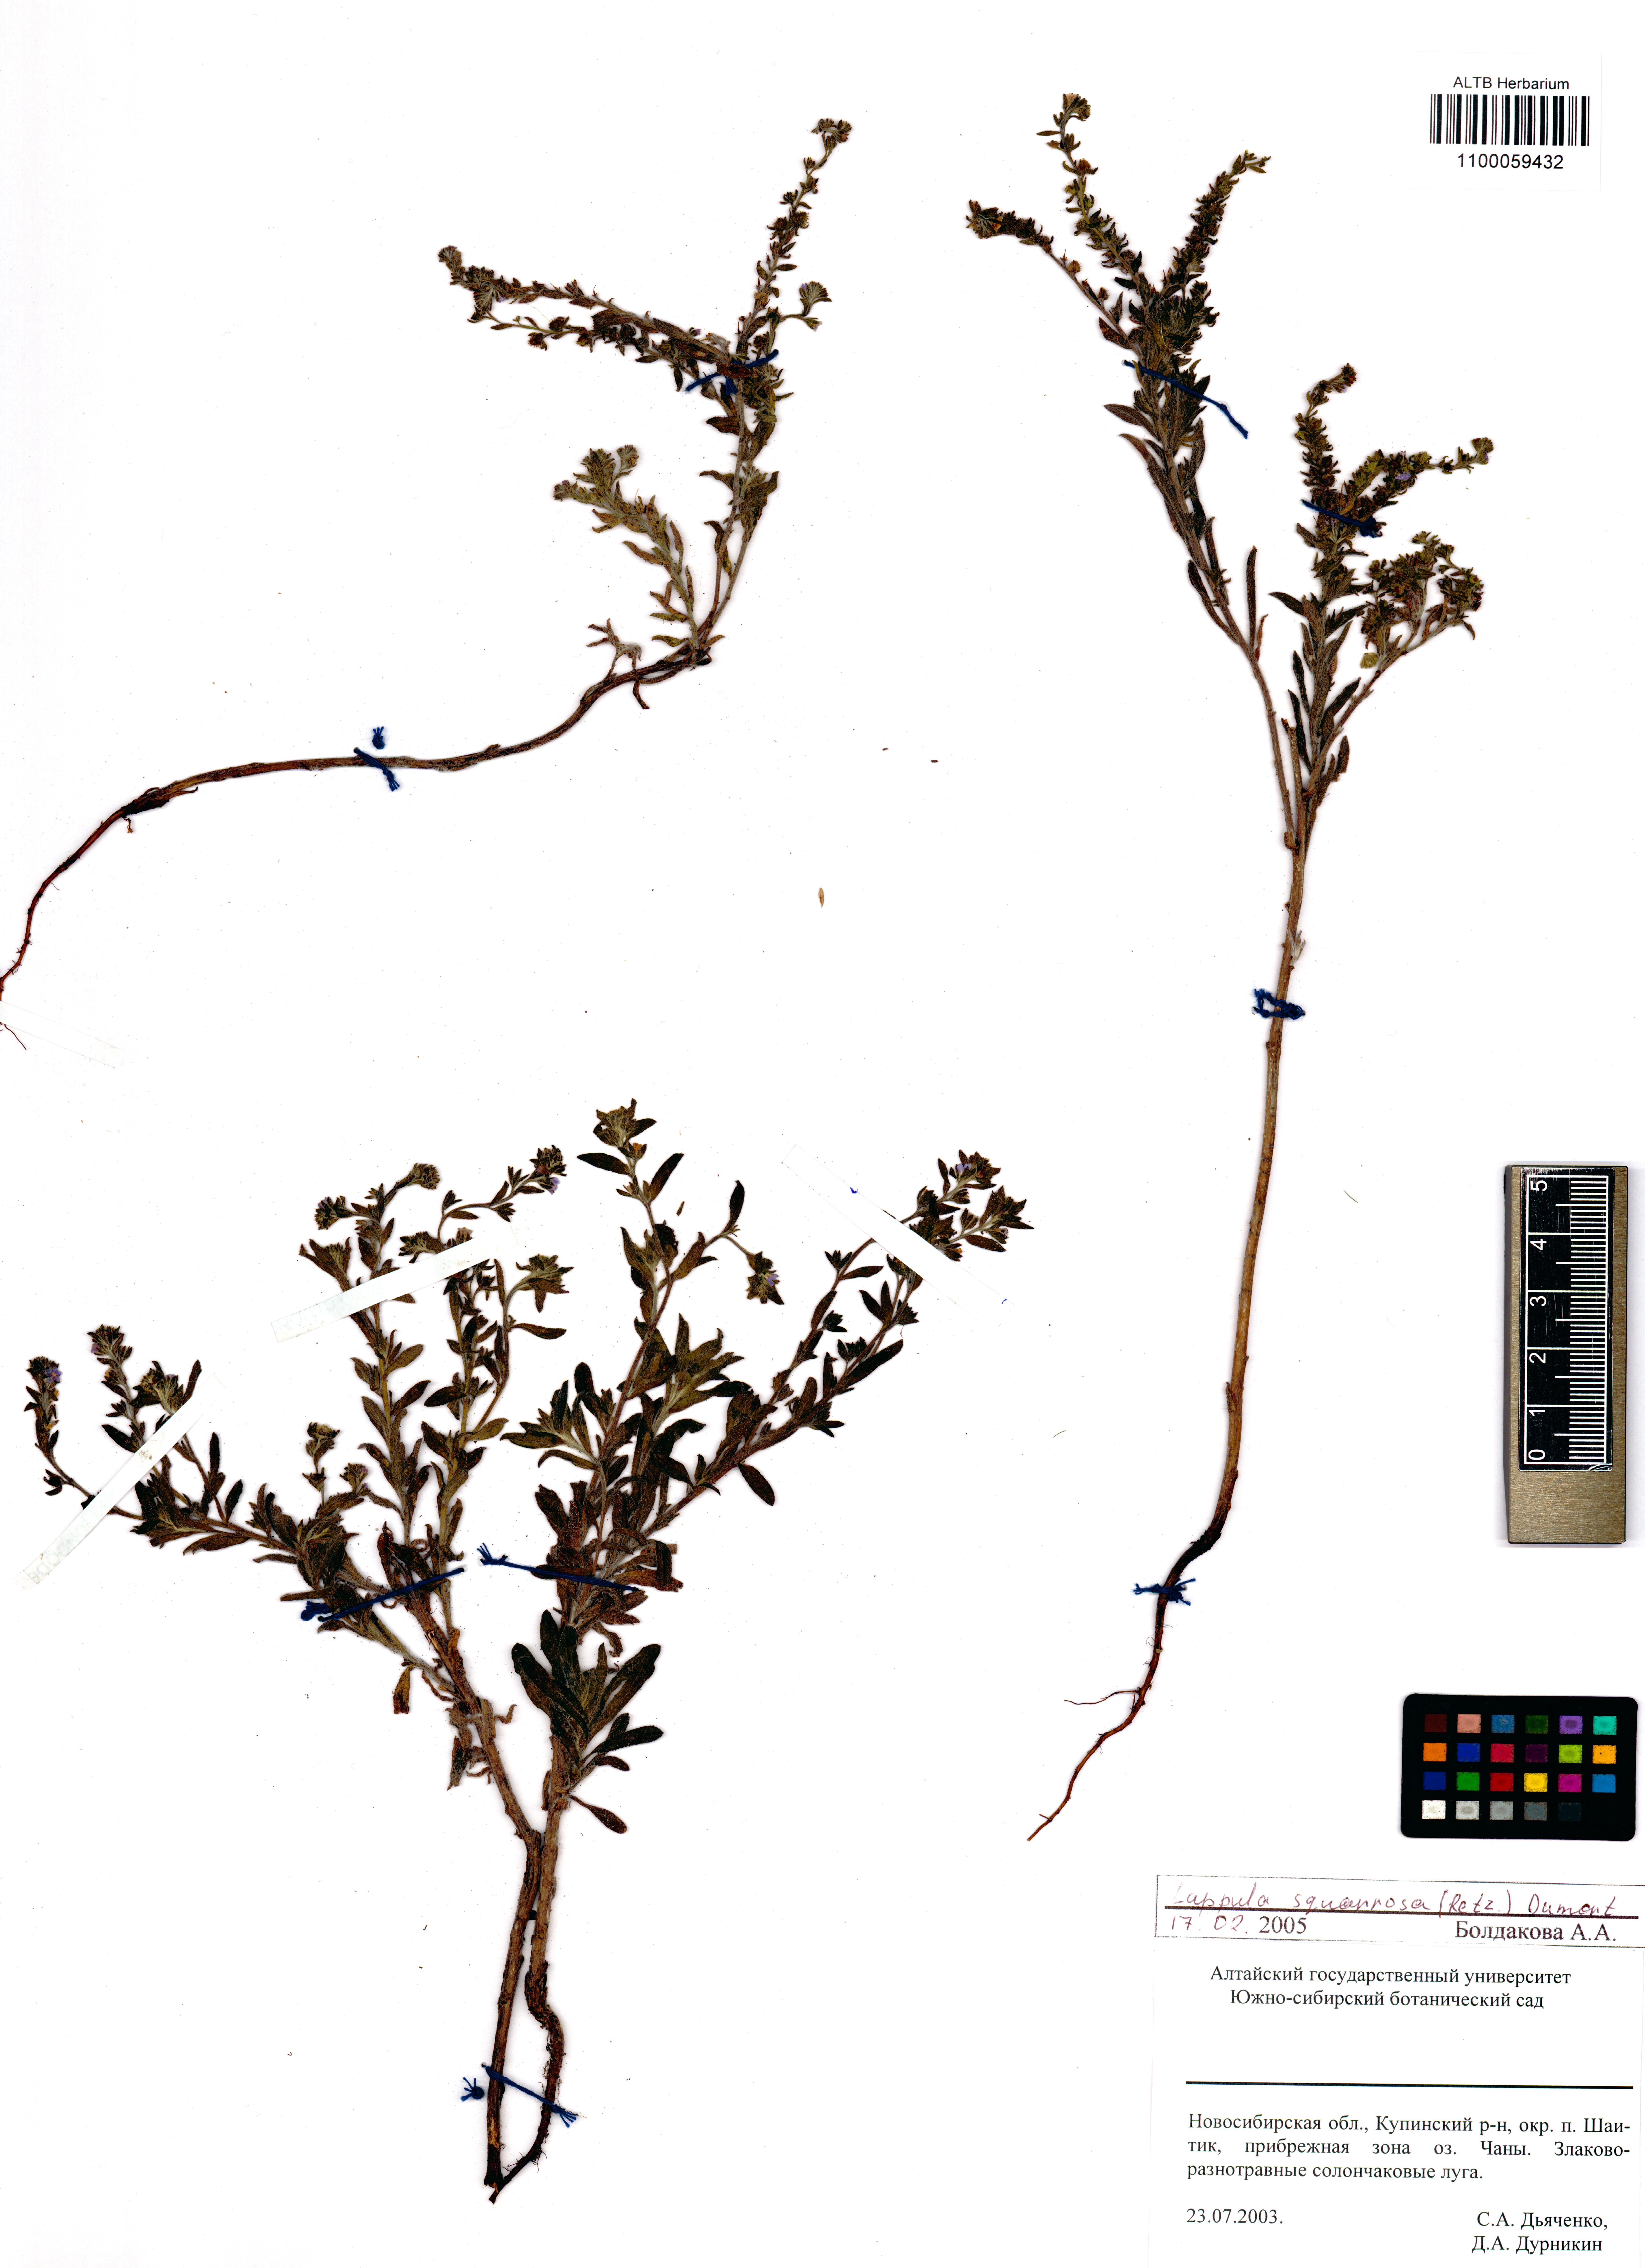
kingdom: Plantae
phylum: Tracheophyta
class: Magnoliopsida
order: Boraginales
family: Boraginaceae
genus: Lappula
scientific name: Lappula squarrosa
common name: European stickseed
